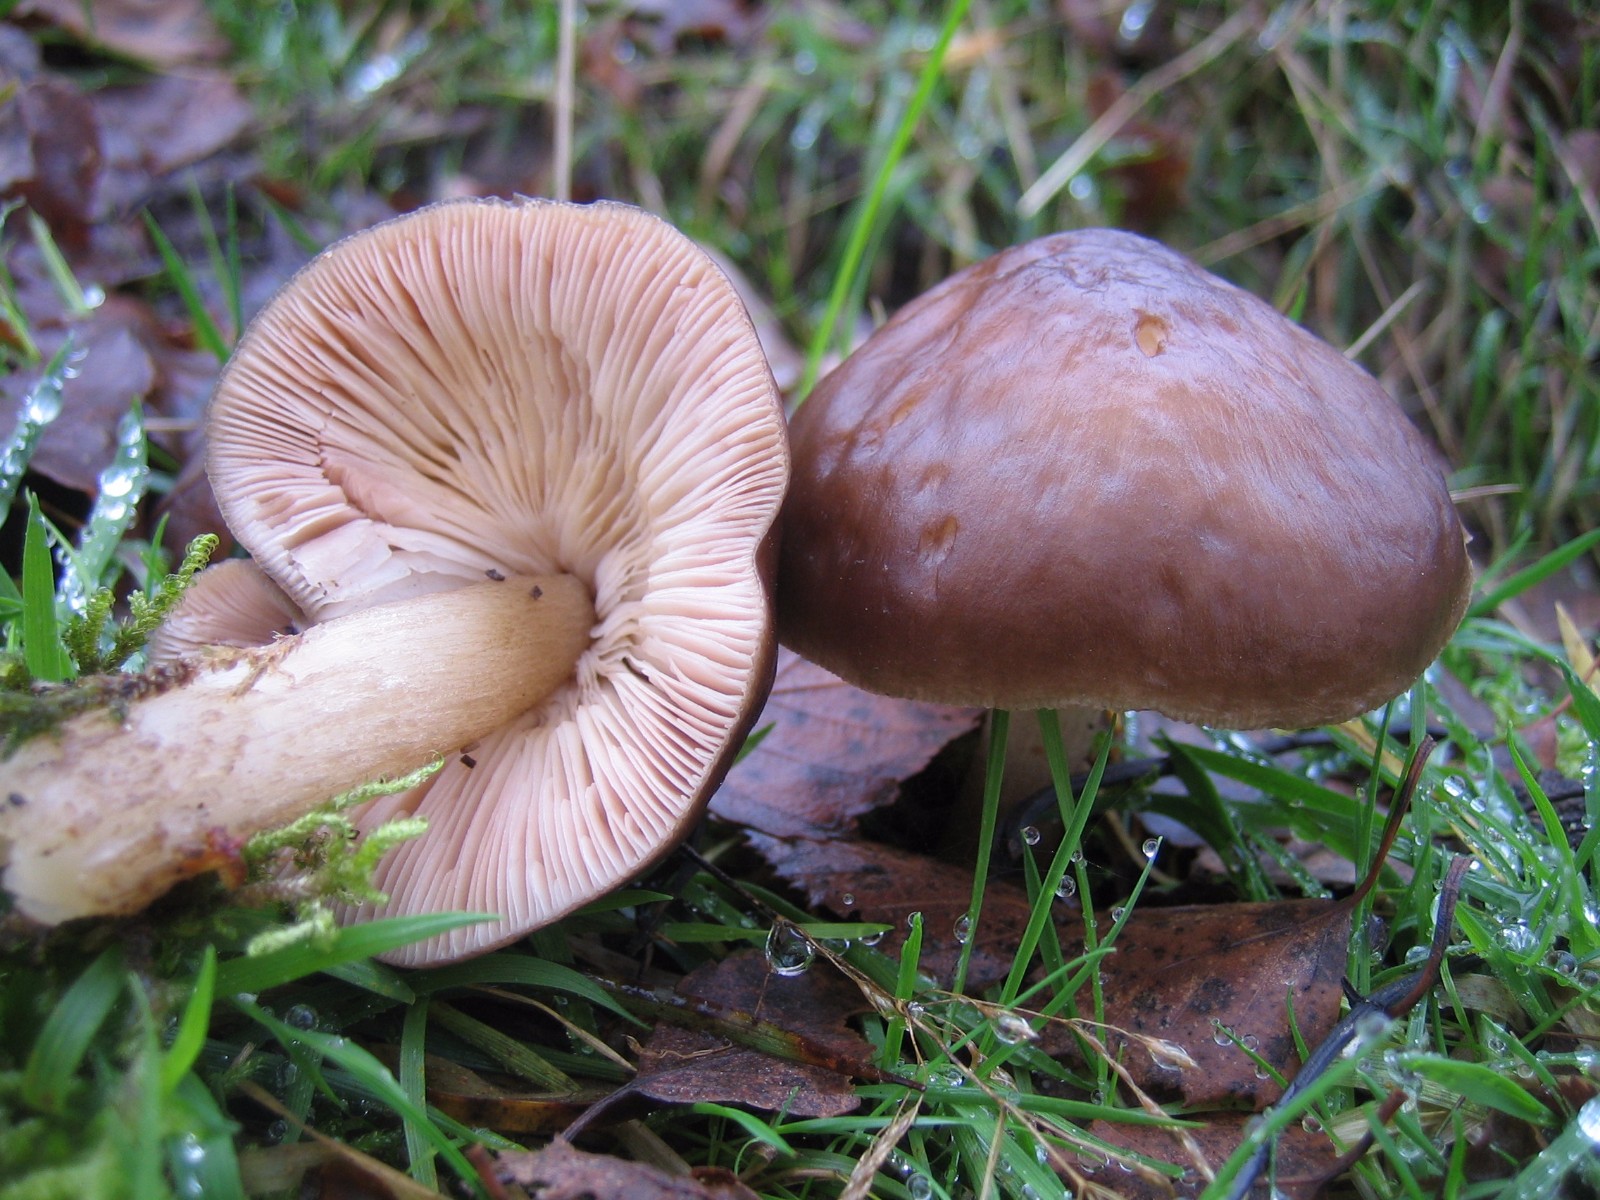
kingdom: Fungi
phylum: Basidiomycota
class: Agaricomycetes
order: Agaricales
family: Pluteaceae
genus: Pluteus
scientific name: Pluteus cervinus
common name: sodfarvet skærmhat
